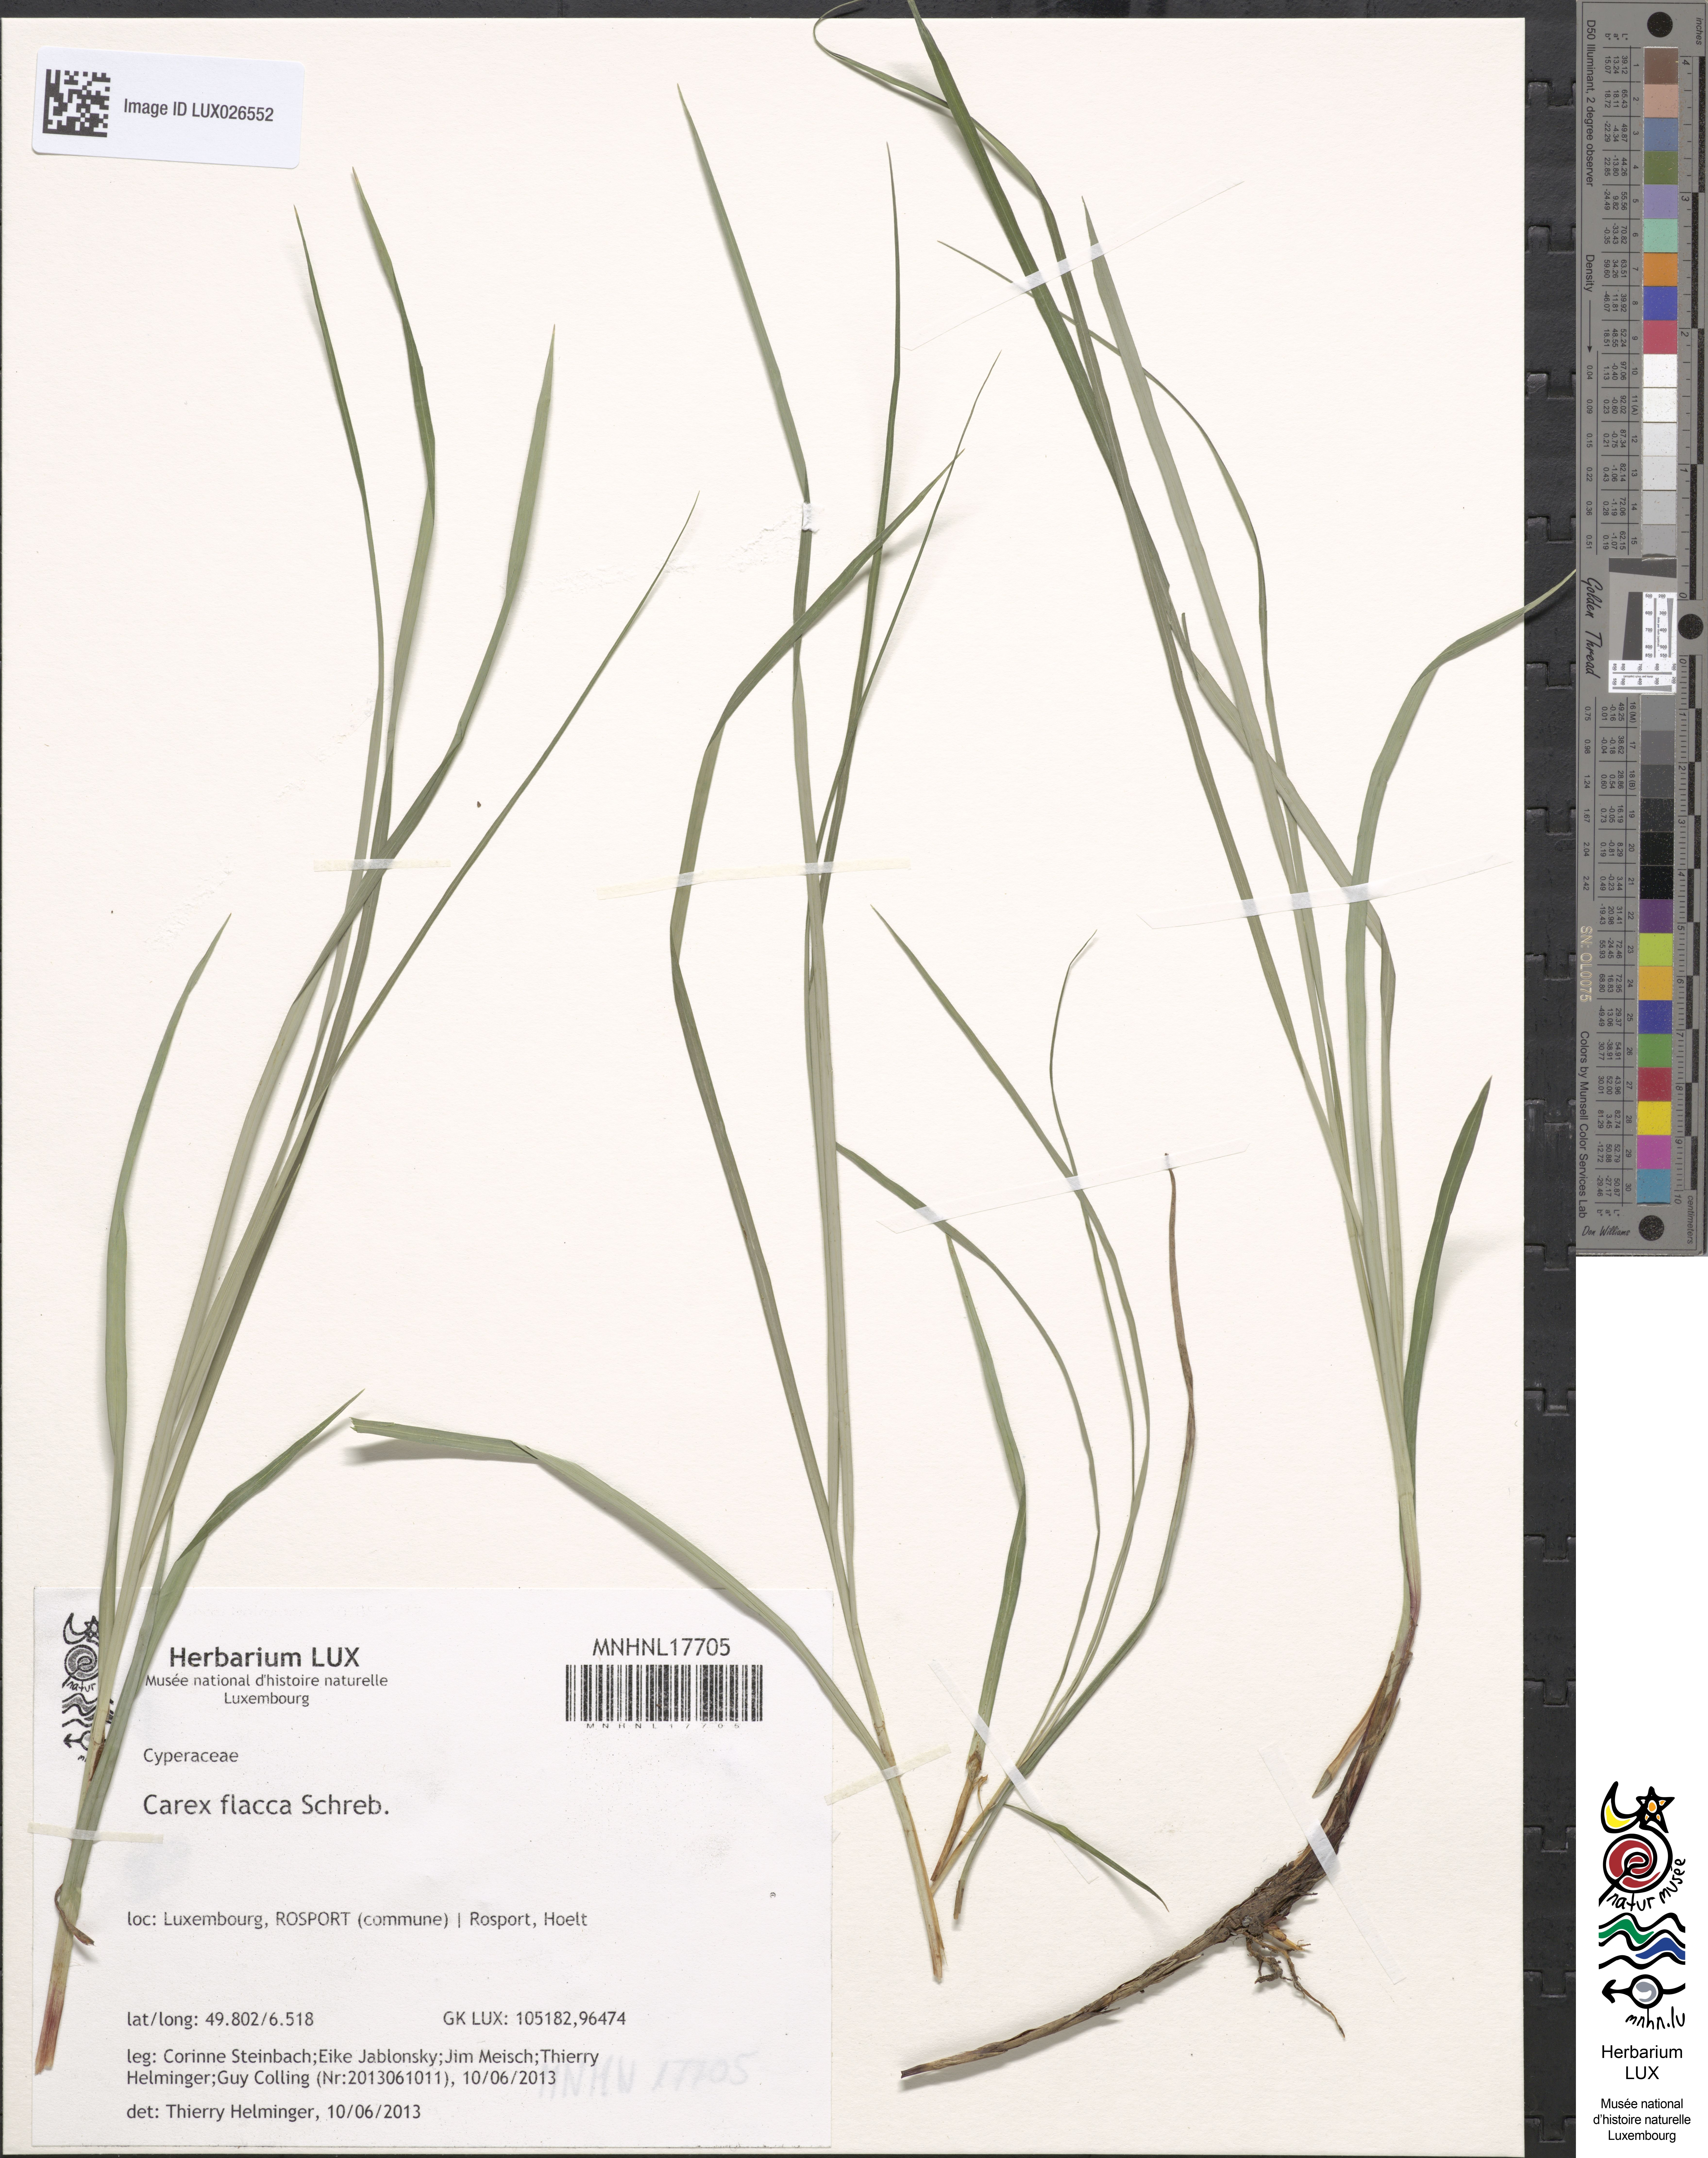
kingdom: Plantae
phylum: Tracheophyta
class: Liliopsida
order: Poales
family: Cyperaceae
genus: Carex
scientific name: Carex flacca
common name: Glaucous sedge
